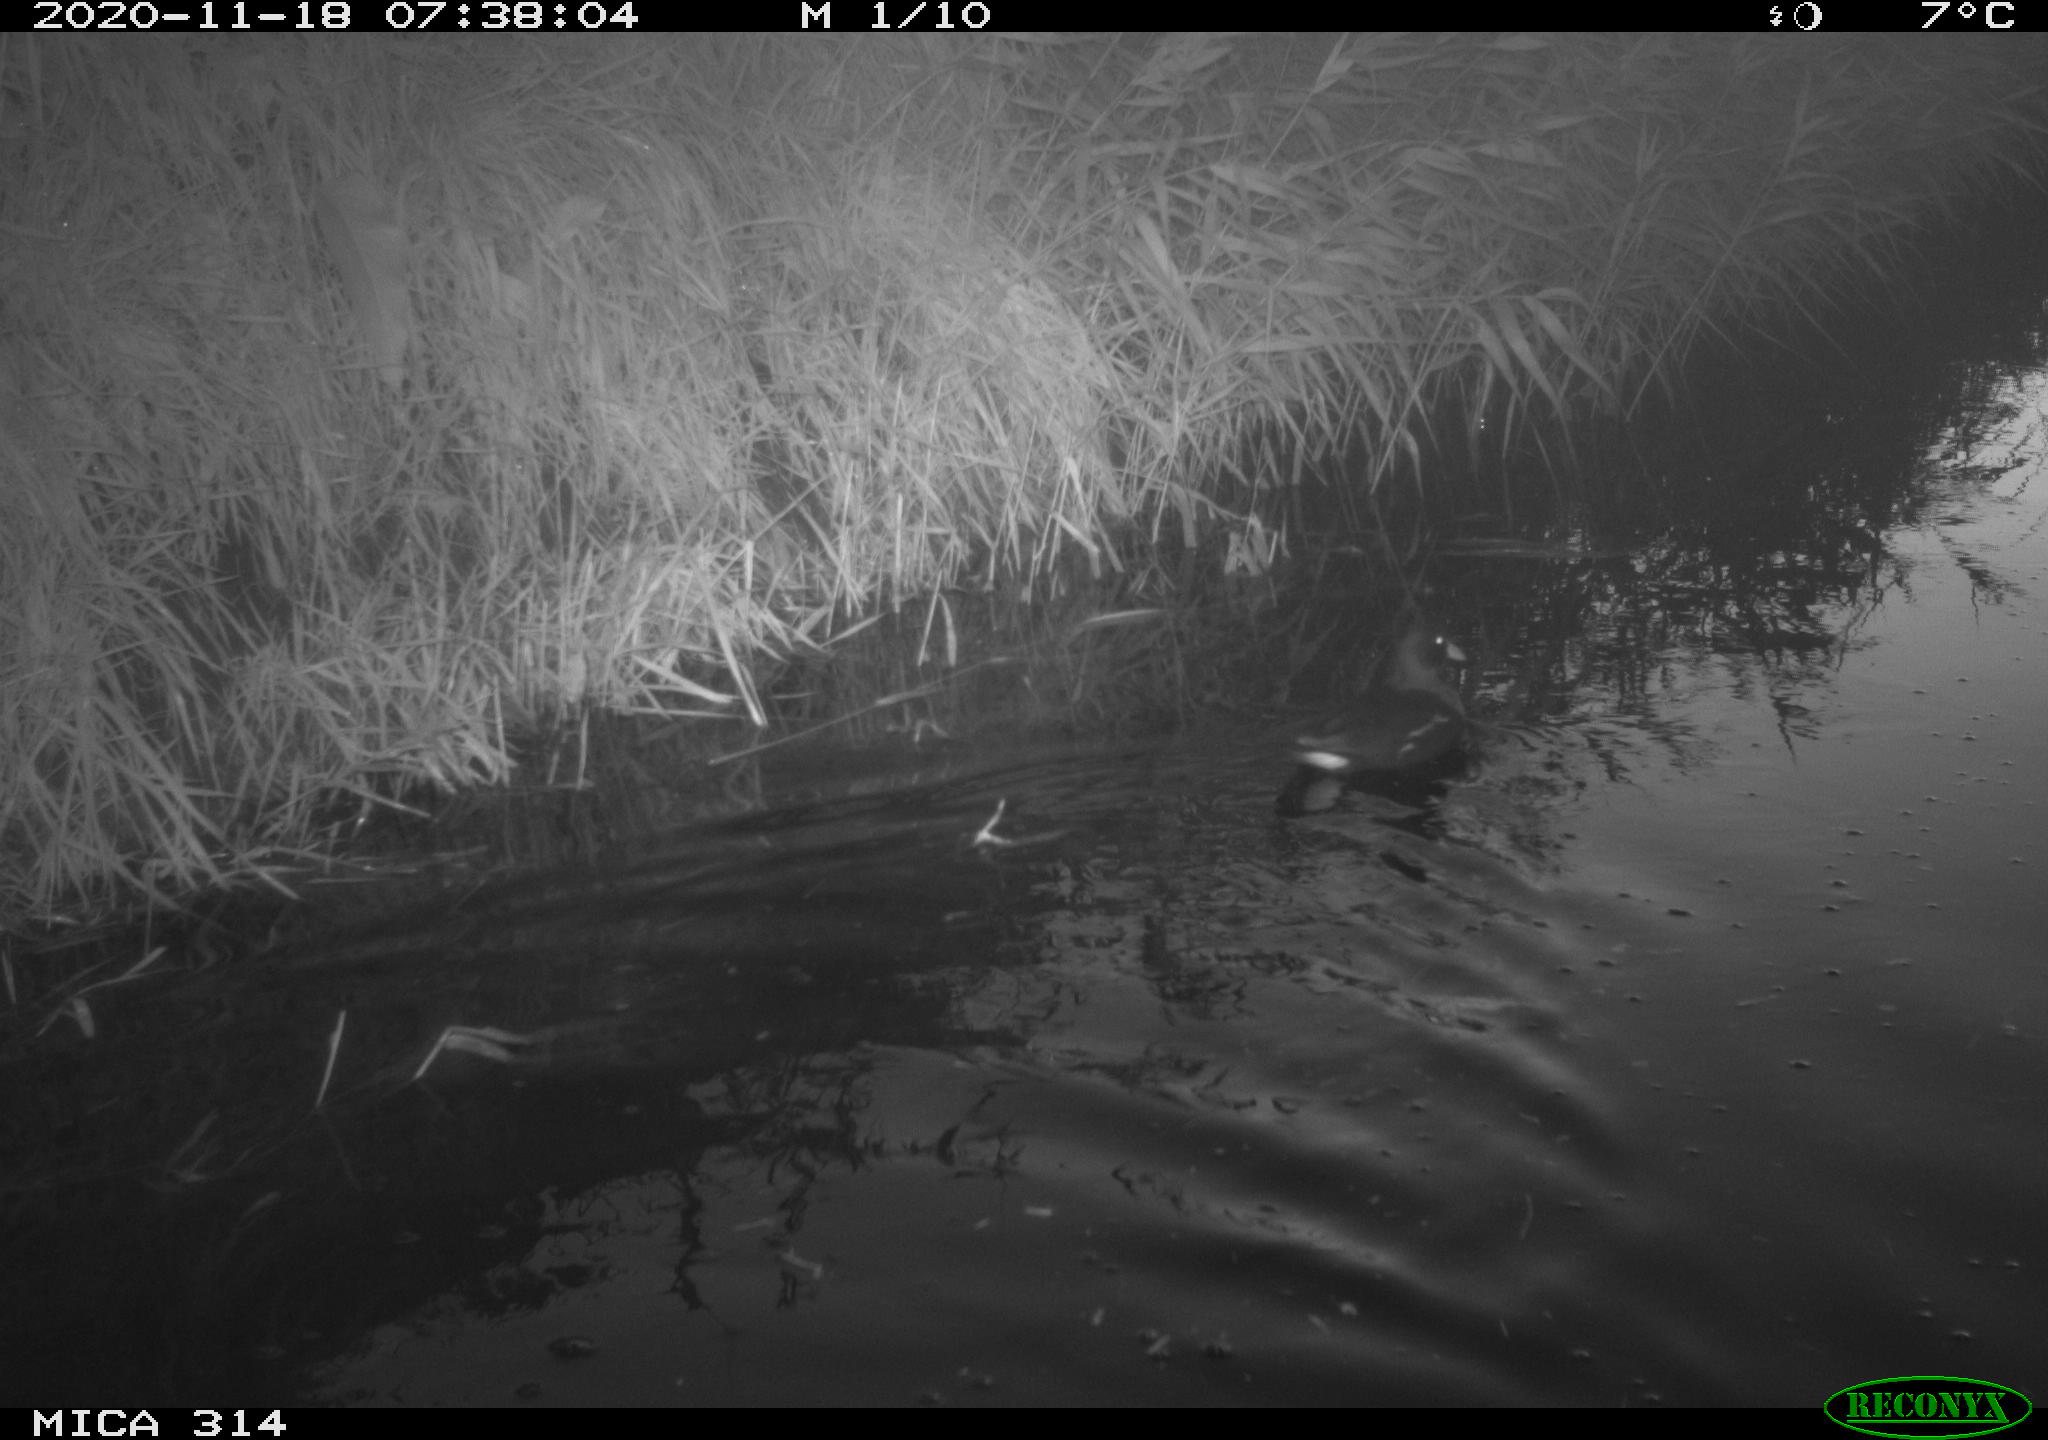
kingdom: Animalia
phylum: Chordata
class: Aves
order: Gruiformes
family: Rallidae
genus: Gallinula
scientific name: Gallinula chloropus
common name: Common moorhen
